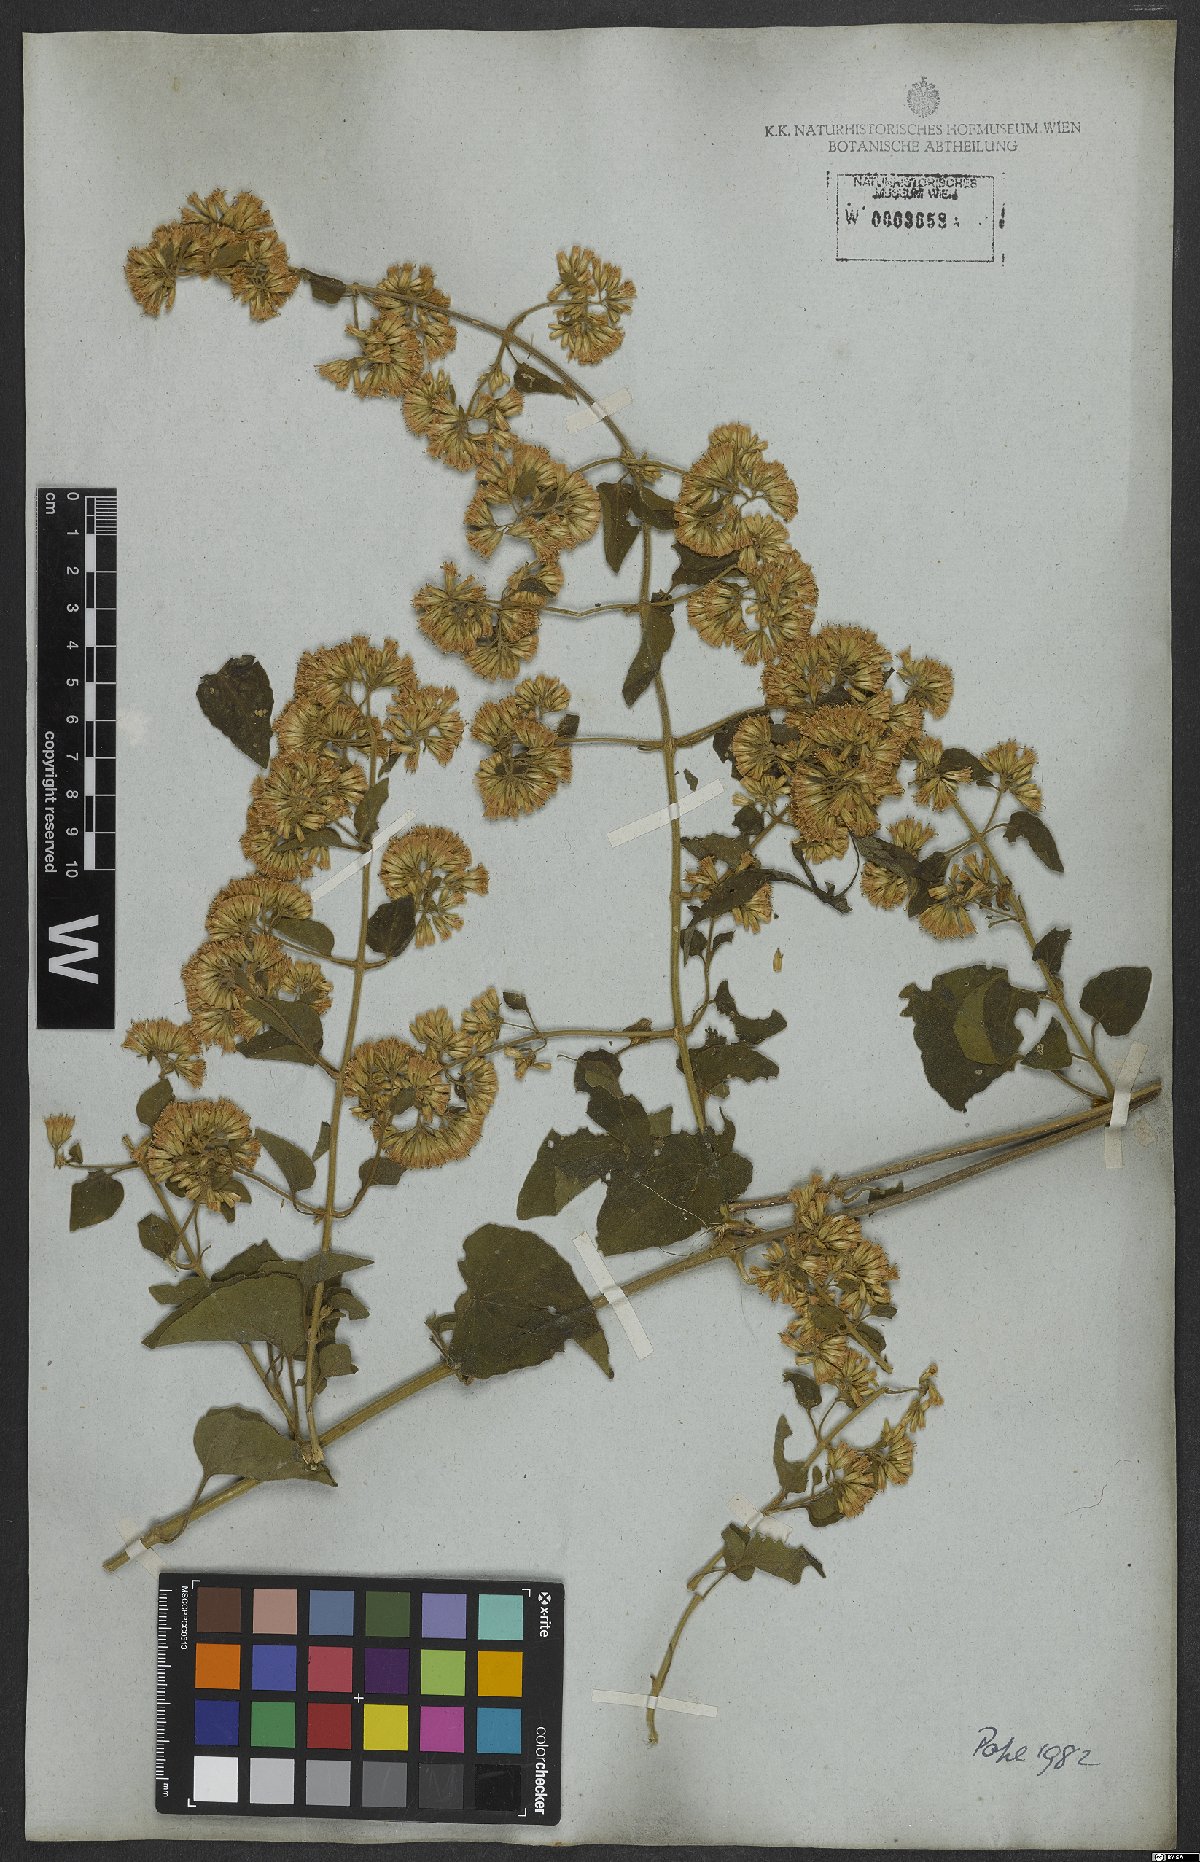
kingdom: Plantae
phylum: Tracheophyta
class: Magnoliopsida
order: Asterales
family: Asteraceae
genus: Mikania
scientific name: Mikania cordifolia
